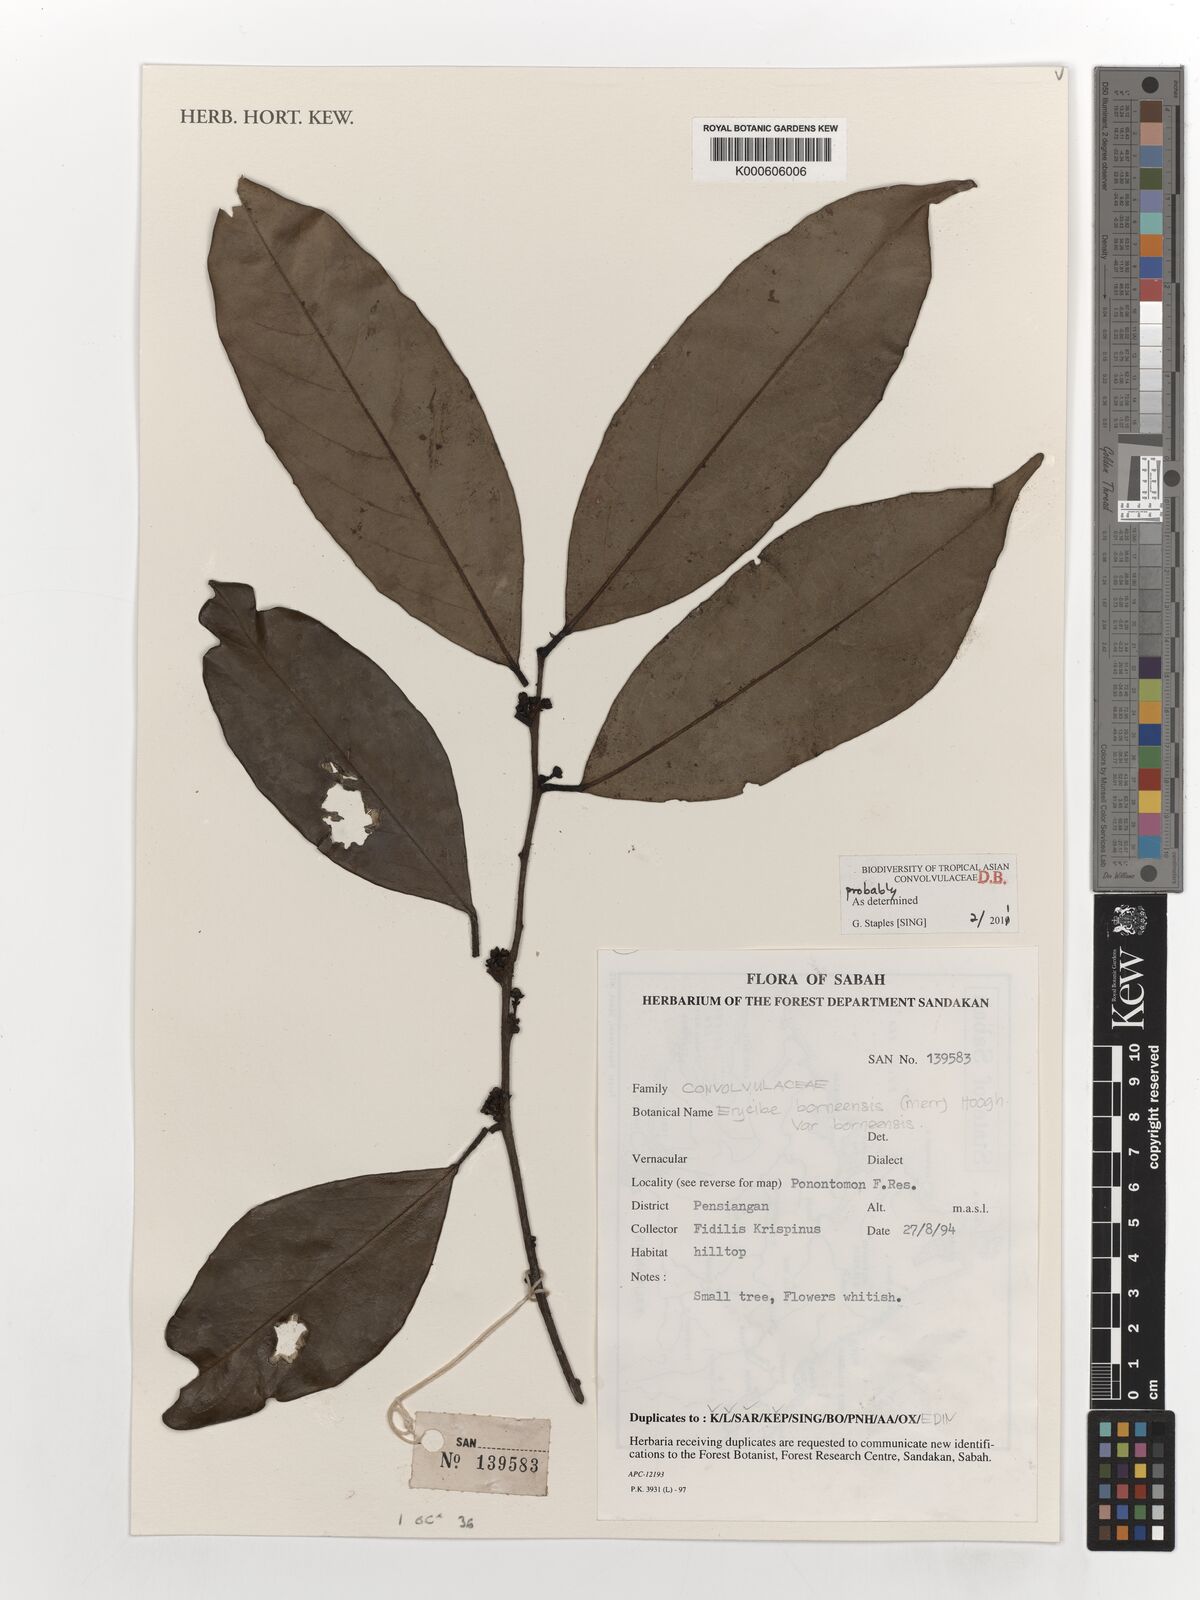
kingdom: Plantae
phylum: Tracheophyta
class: Magnoliopsida
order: Solanales
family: Convolvulaceae
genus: Erycibe
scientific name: Erycibe borneensis
